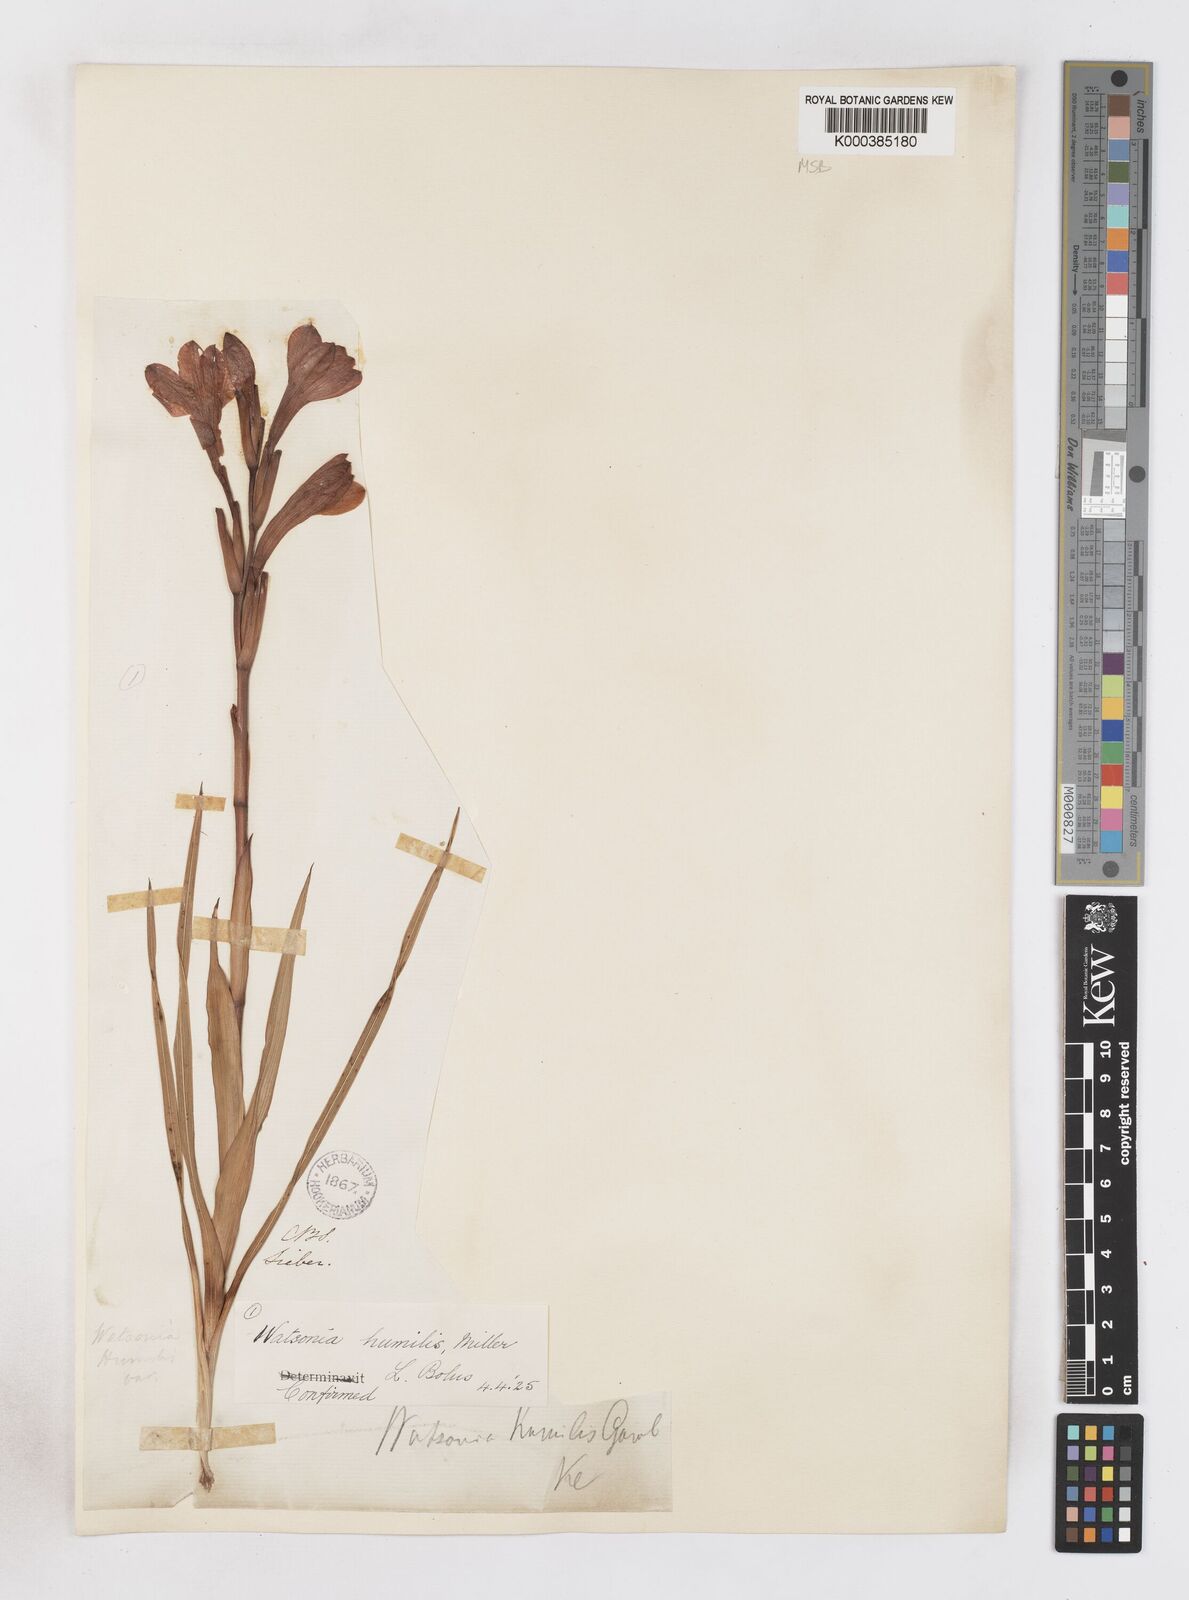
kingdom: Plantae
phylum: Tracheophyta
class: Liliopsida
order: Asparagales
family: Iridaceae
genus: Watsonia
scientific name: Watsonia humilis
